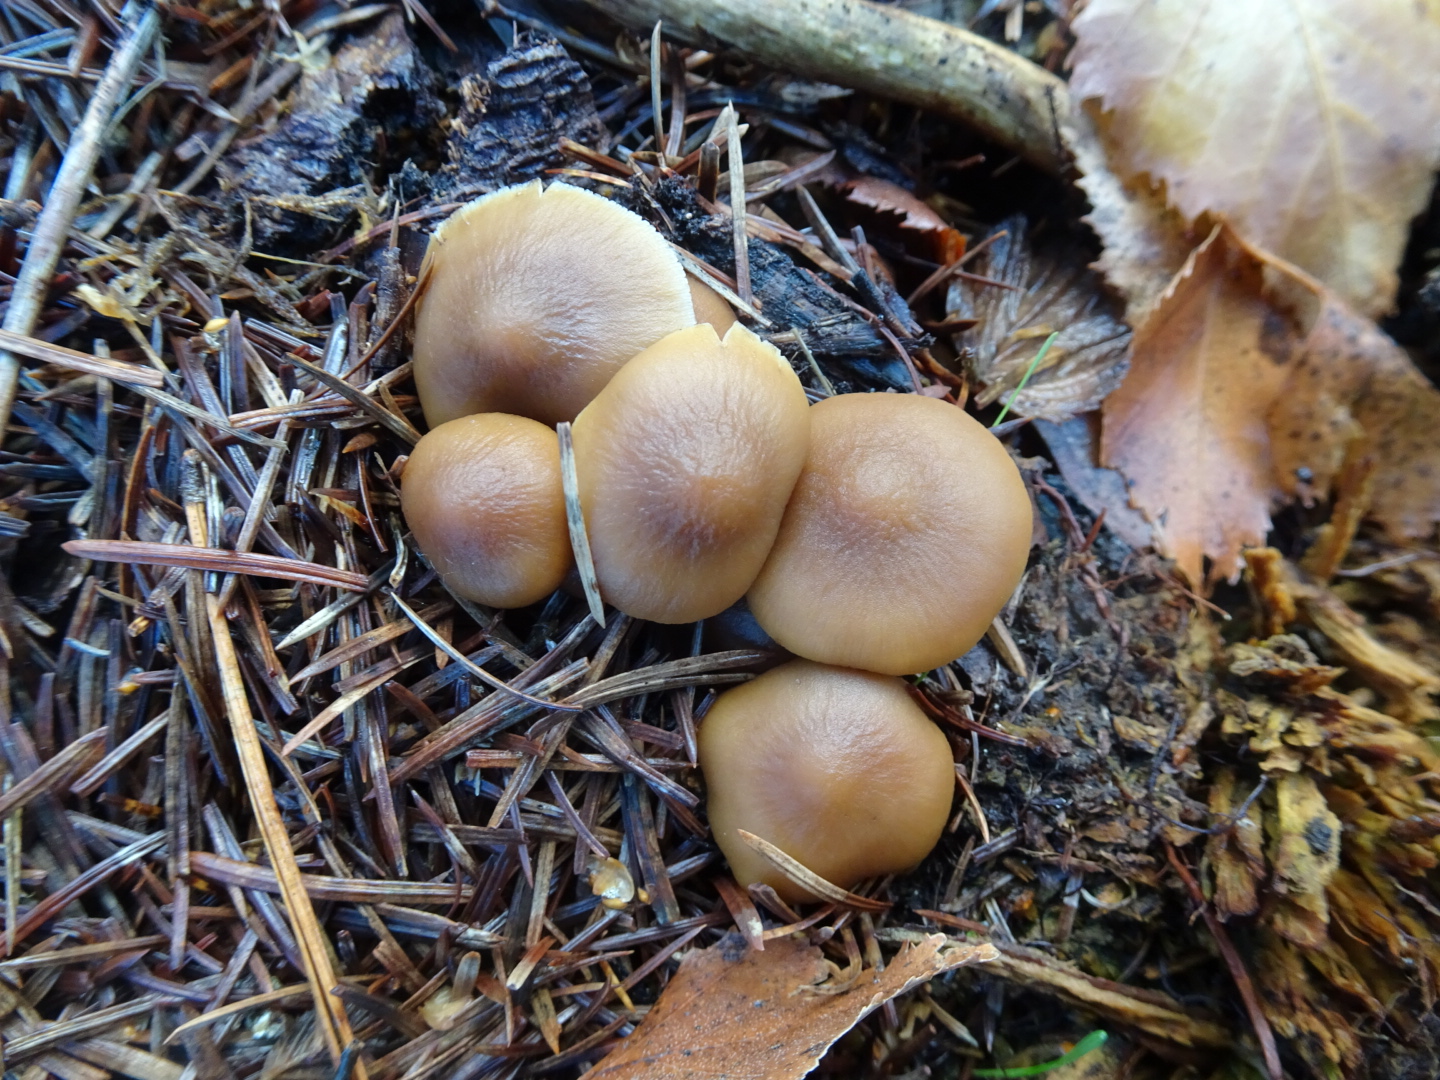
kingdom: Fungi
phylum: Basidiomycota
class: Agaricomycetes
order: Agaricales
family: Psathyrellaceae
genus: Psathyrella
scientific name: Psathyrella piluliformis
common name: lysstokket mørkhat
